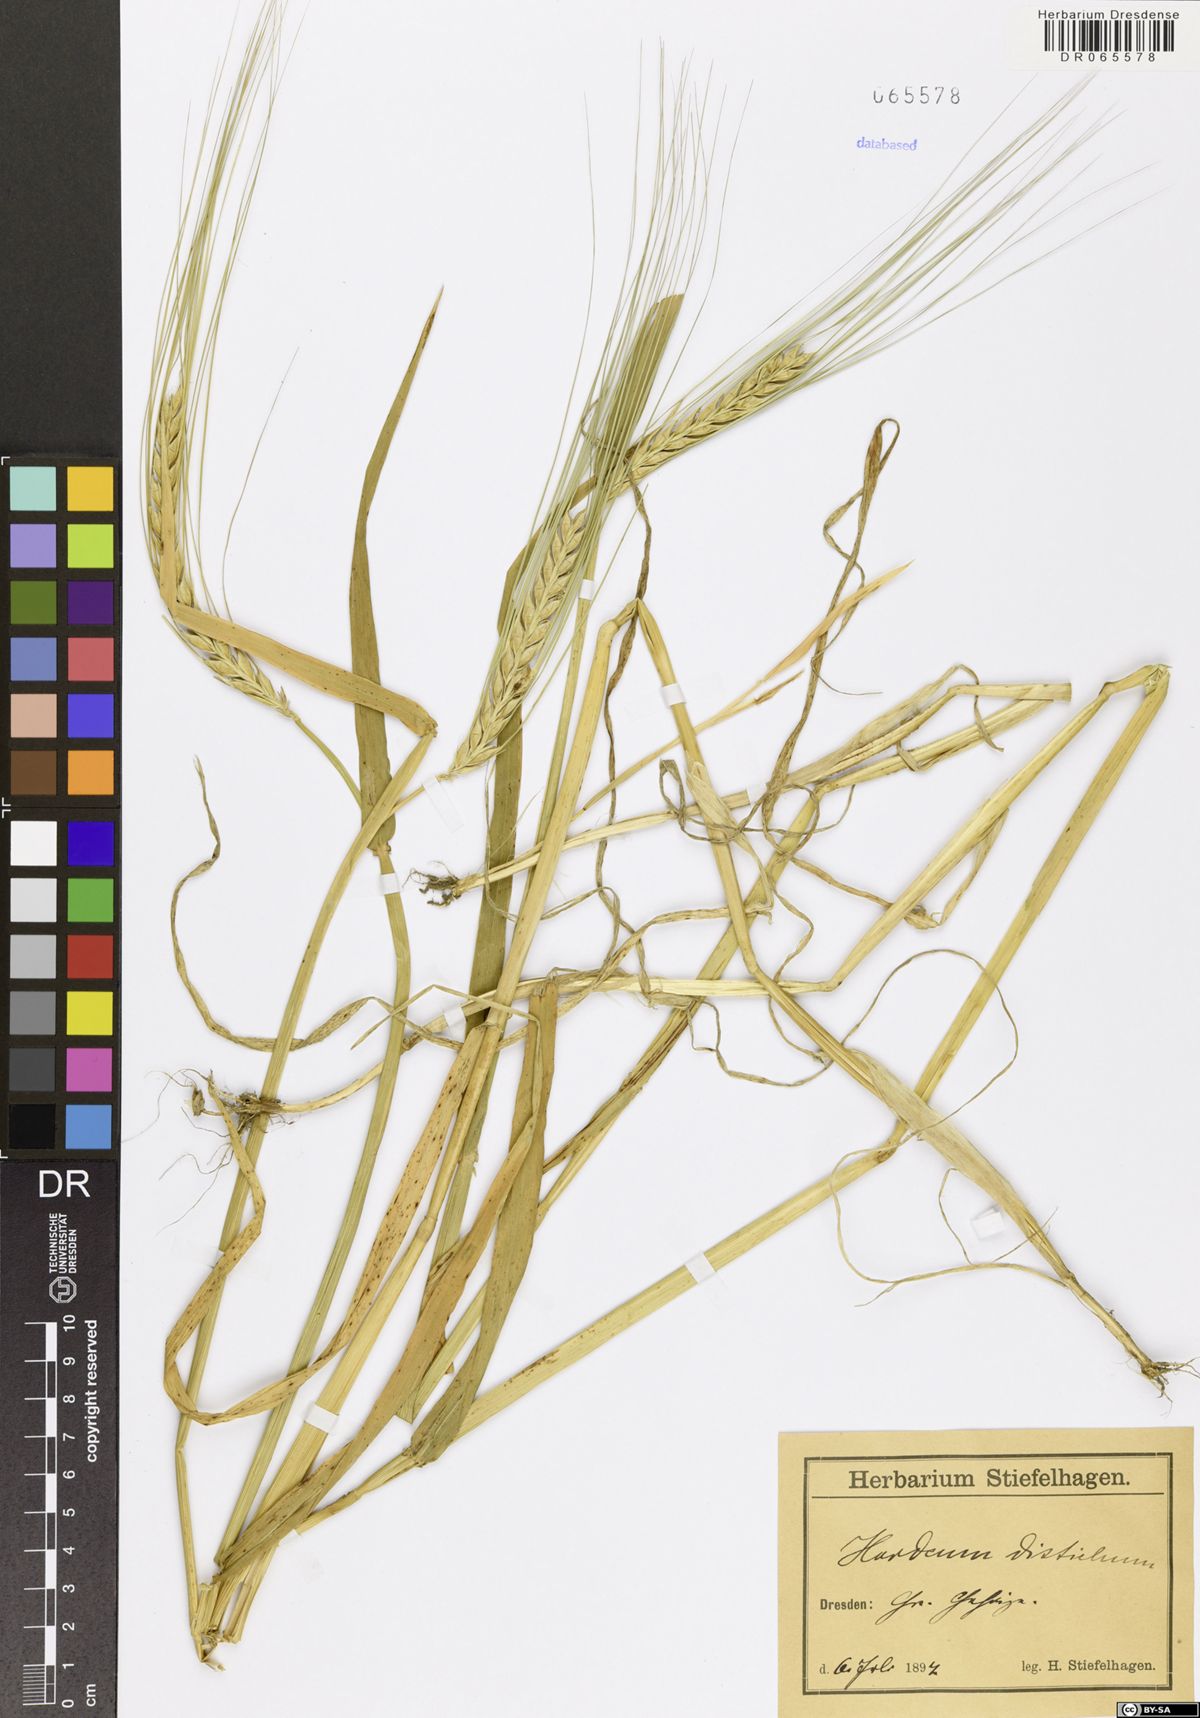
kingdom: Plantae
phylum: Tracheophyta
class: Liliopsida
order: Poales
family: Poaceae
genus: Hordeum
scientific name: Hordeum distichon
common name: Two-rowed barley
